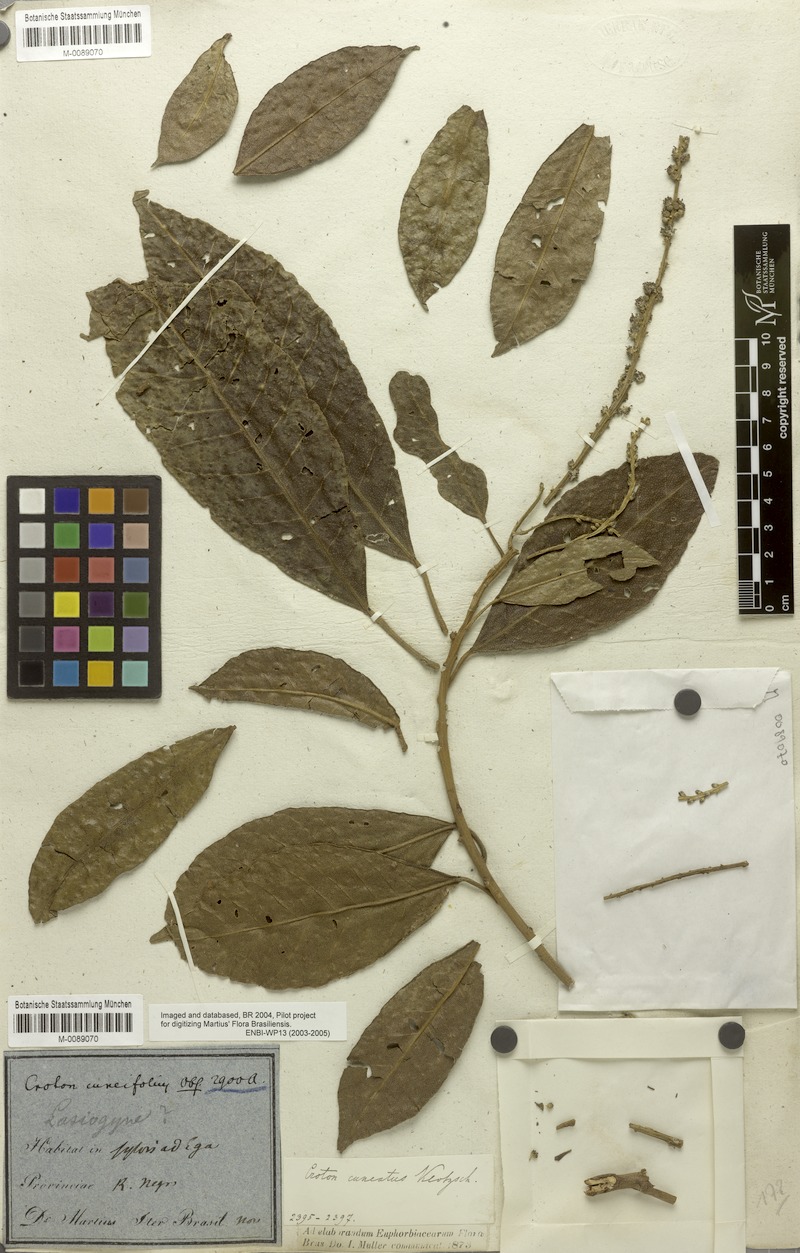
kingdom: Plantae
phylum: Tracheophyta
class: Magnoliopsida
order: Malpighiales
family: Euphorbiaceae
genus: Croton
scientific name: Croton cuneatus
